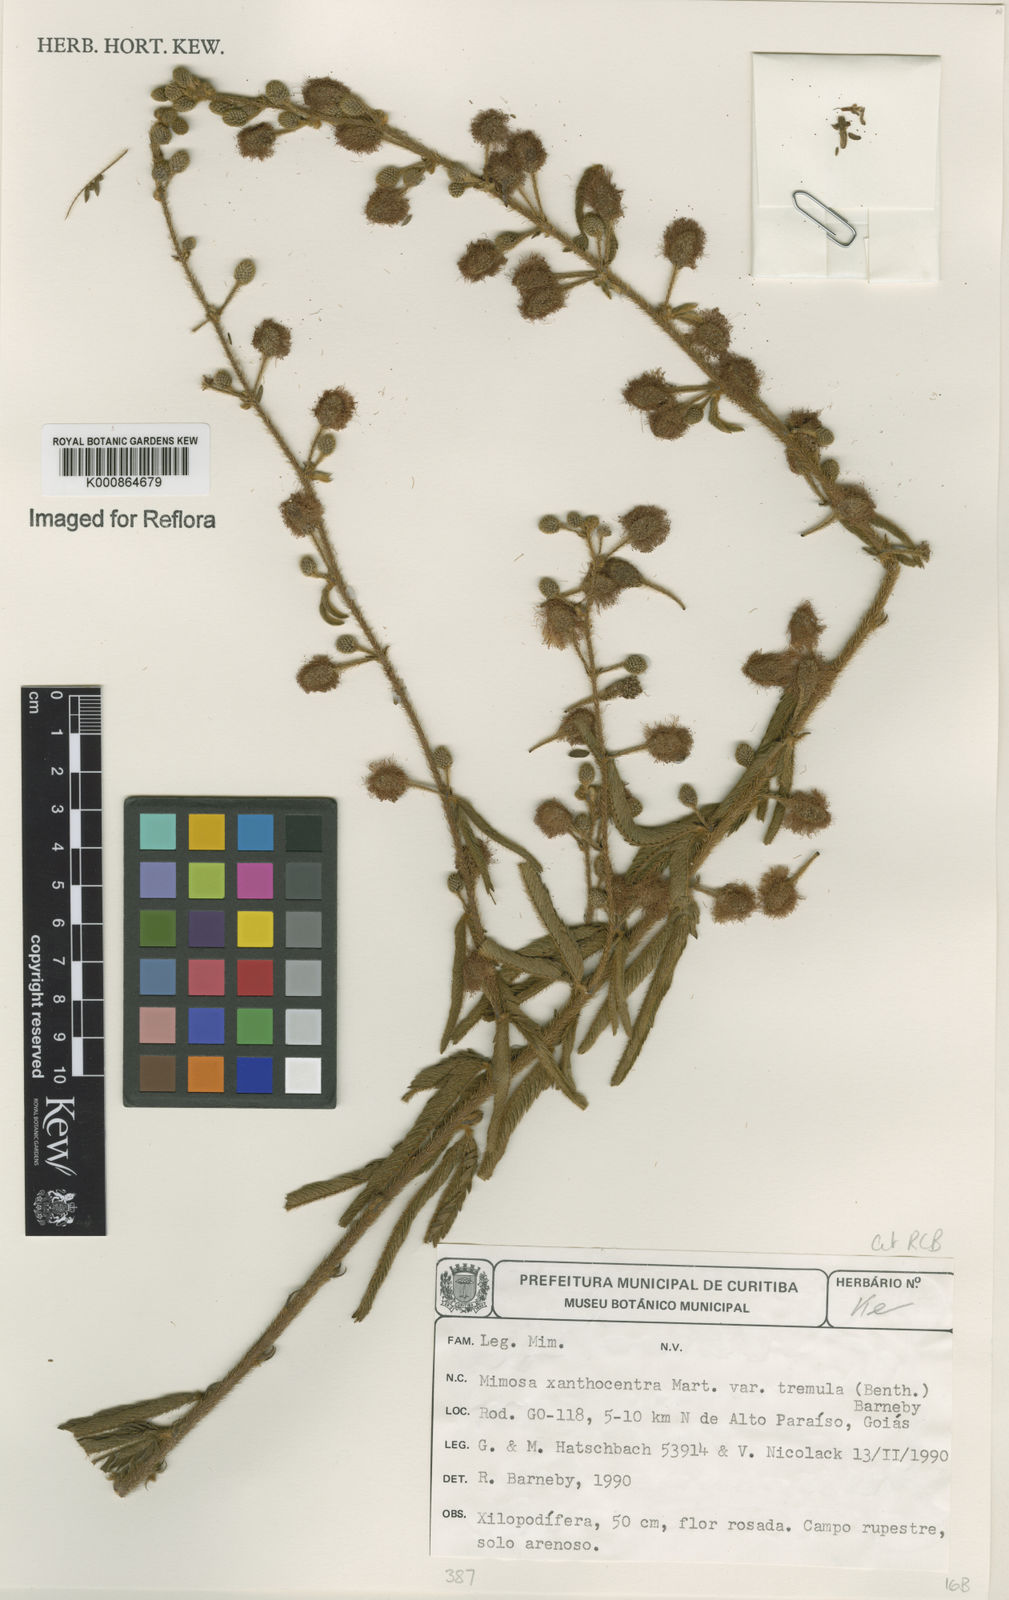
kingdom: Plantae
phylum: Tracheophyta
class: Magnoliopsida
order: Fabales
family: Fabaceae
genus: Mimosa
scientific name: Mimosa xanthocentra
